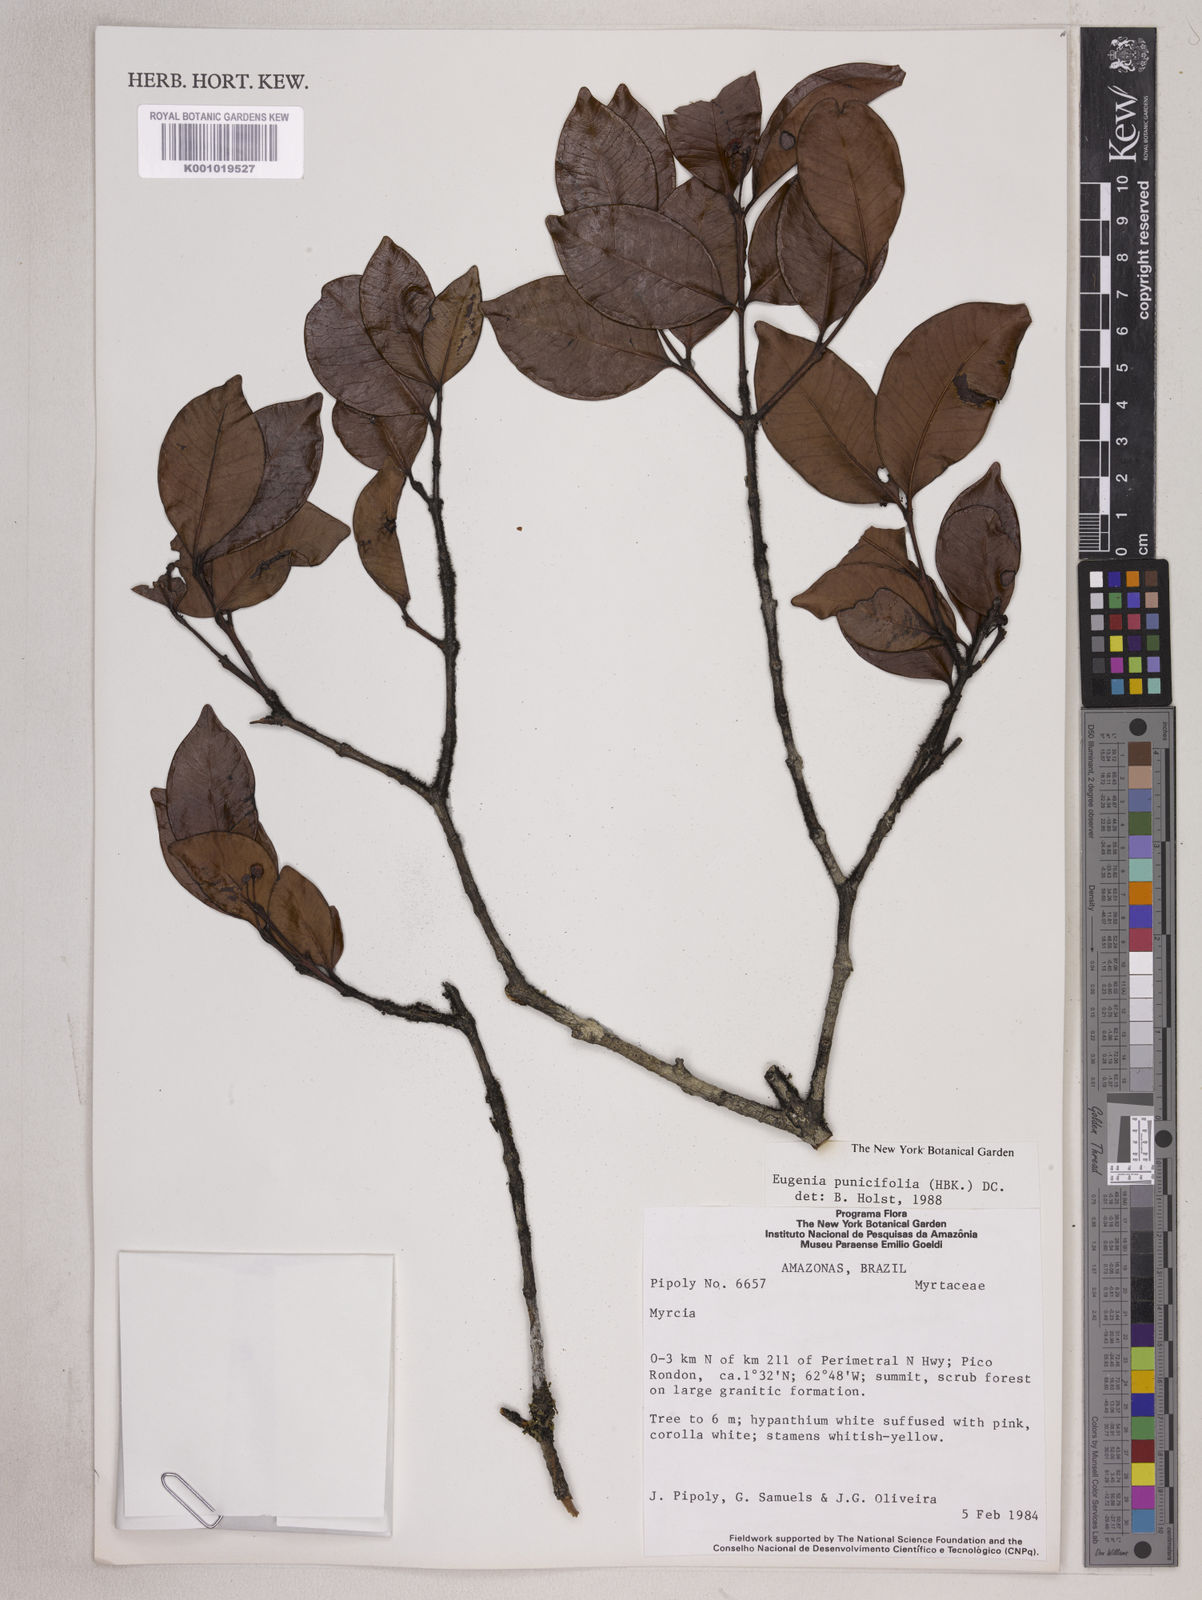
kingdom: Plantae
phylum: Tracheophyta
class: Magnoliopsida
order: Myrtales
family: Myrtaceae
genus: Eugenia
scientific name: Eugenia punicifolia
